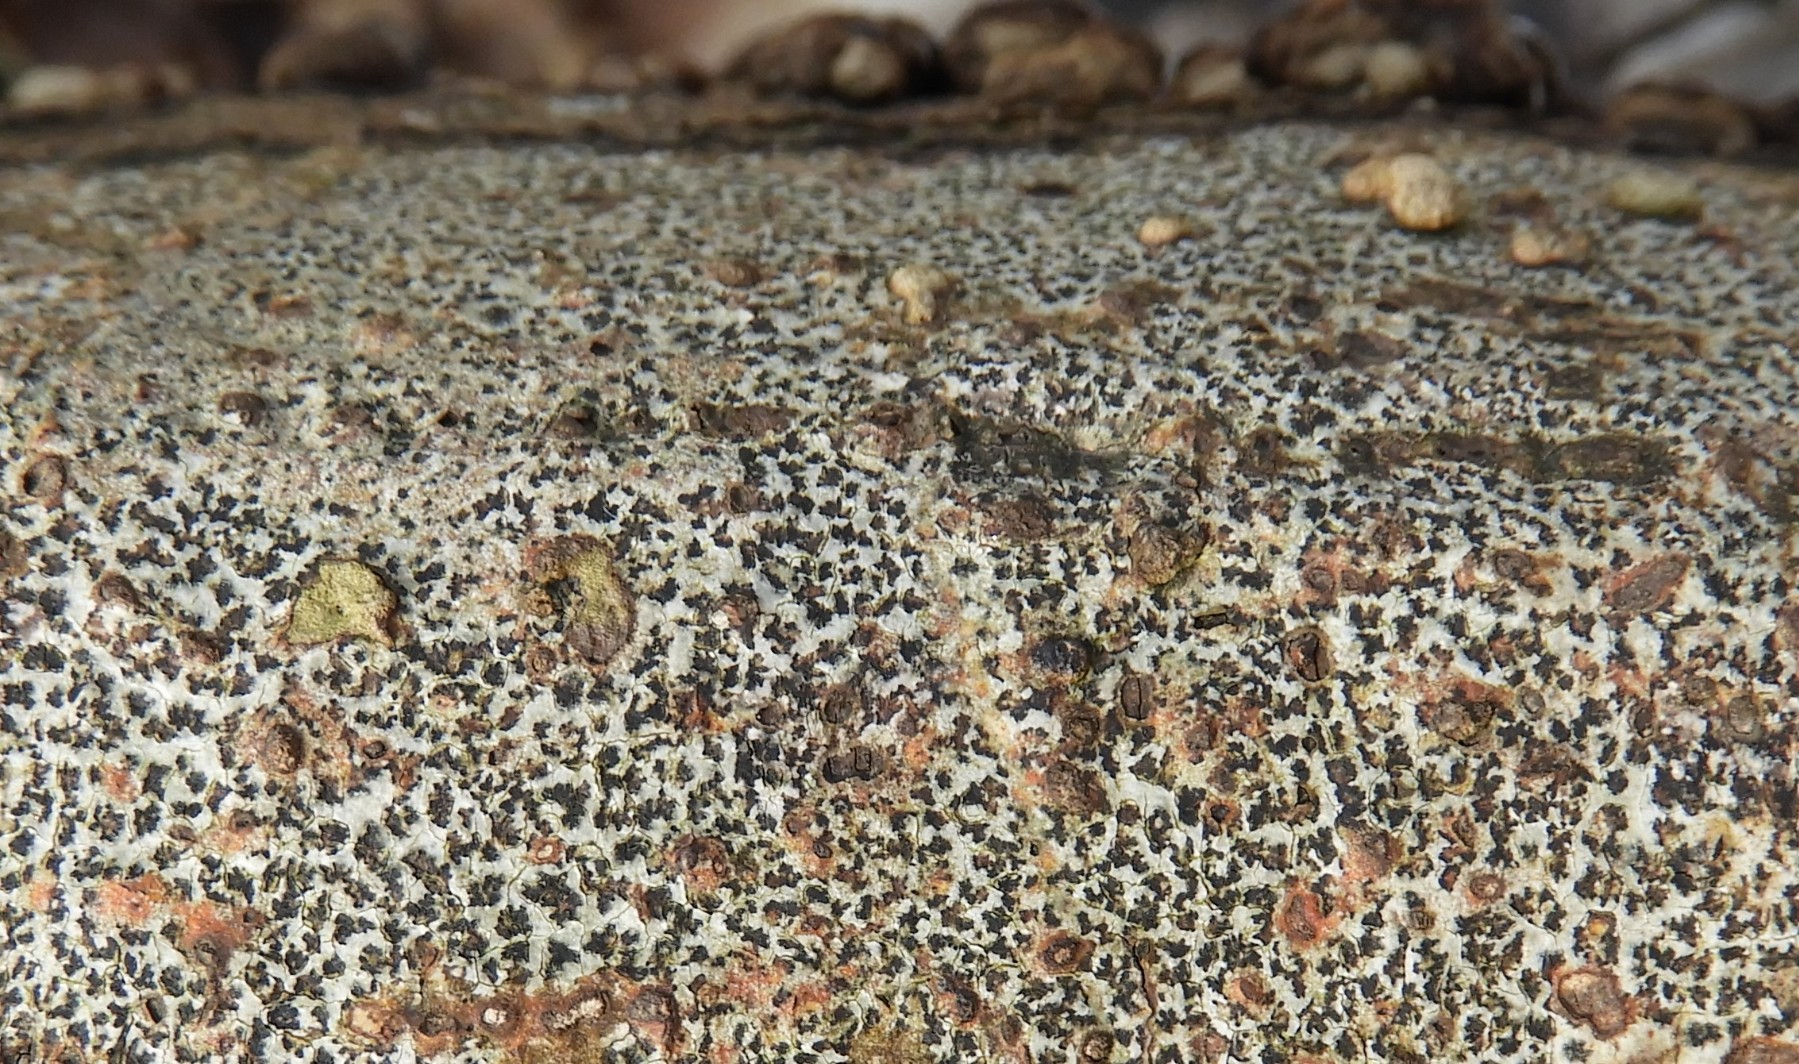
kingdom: Fungi
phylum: Ascomycota
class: Arthoniomycetes
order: Arthoniales
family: Arthoniaceae
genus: Arthonia
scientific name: Arthonia radiata
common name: stjerne-pletlav
